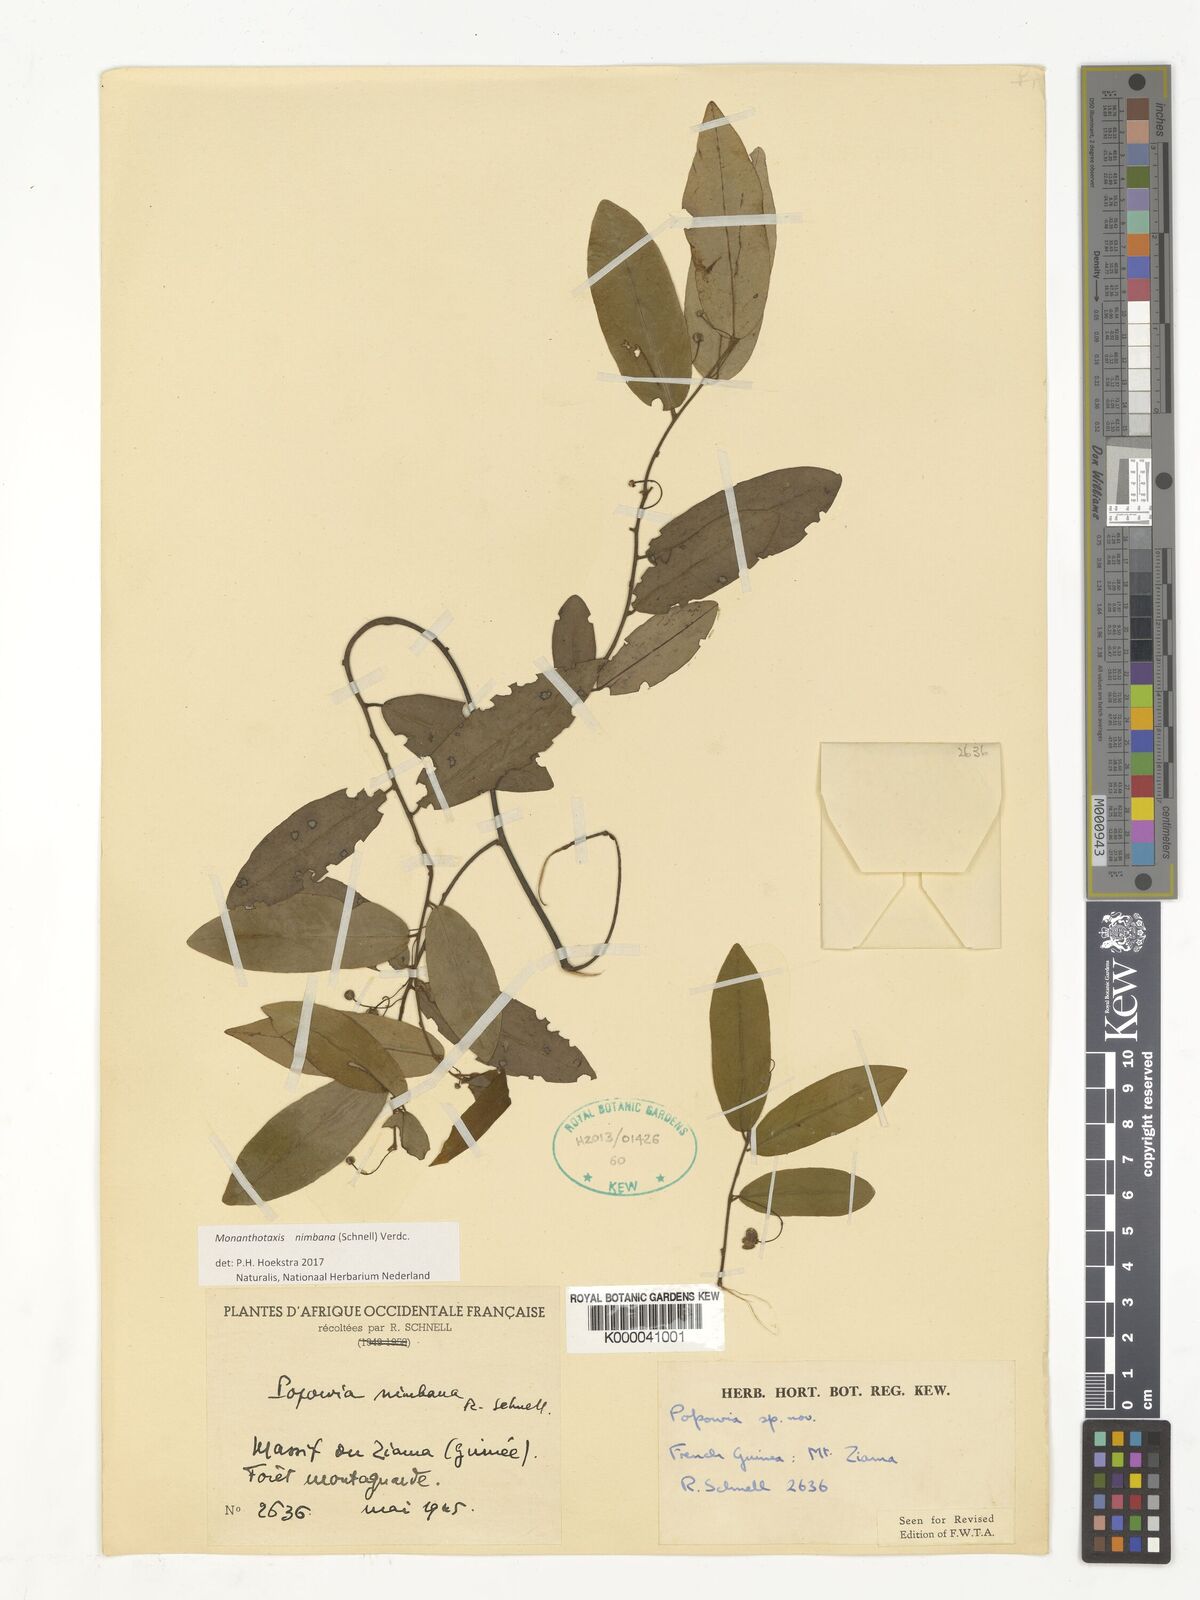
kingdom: Plantae
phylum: Tracheophyta
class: Magnoliopsida
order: Magnoliales
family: Annonaceae
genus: Monanthotaxis
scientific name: Monanthotaxis nimbana
